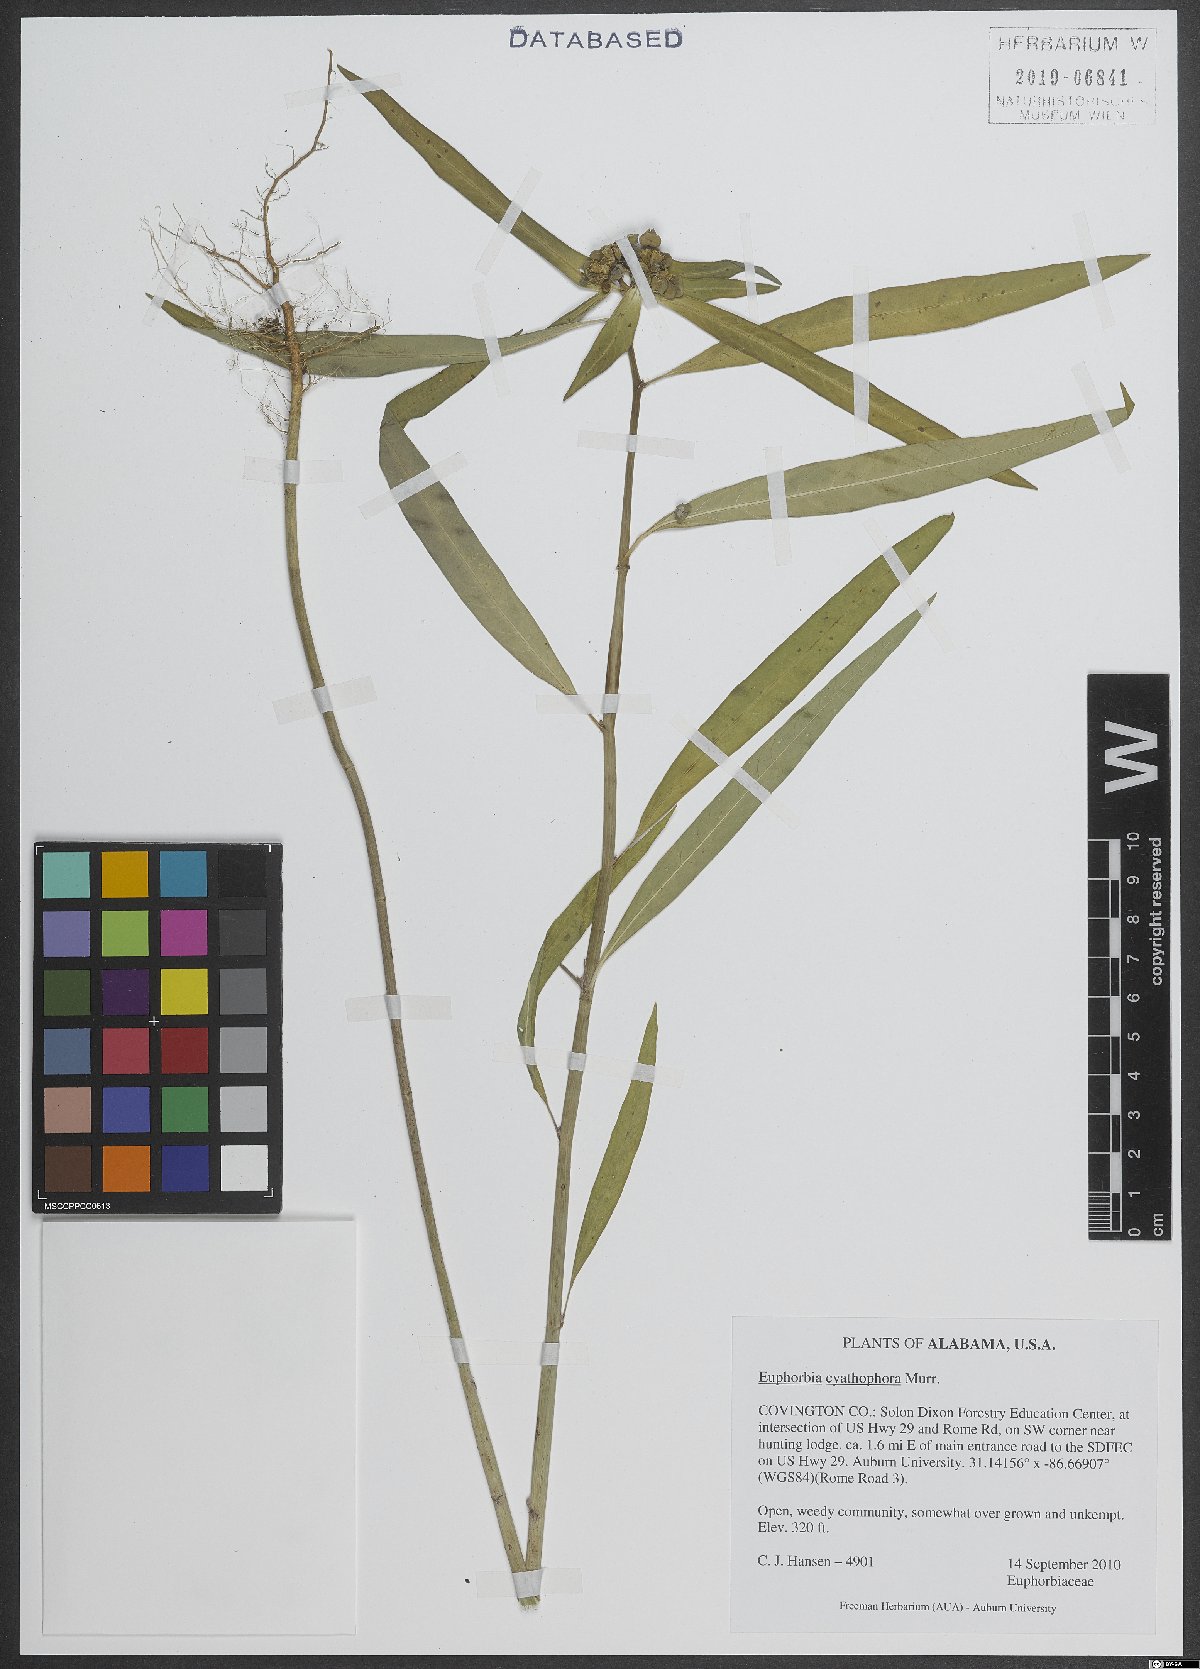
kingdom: Plantae
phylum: Tracheophyta
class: Magnoliopsida
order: Malpighiales
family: Euphorbiaceae
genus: Euphorbia
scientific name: Euphorbia heterophylla
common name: Mexican fireplant
